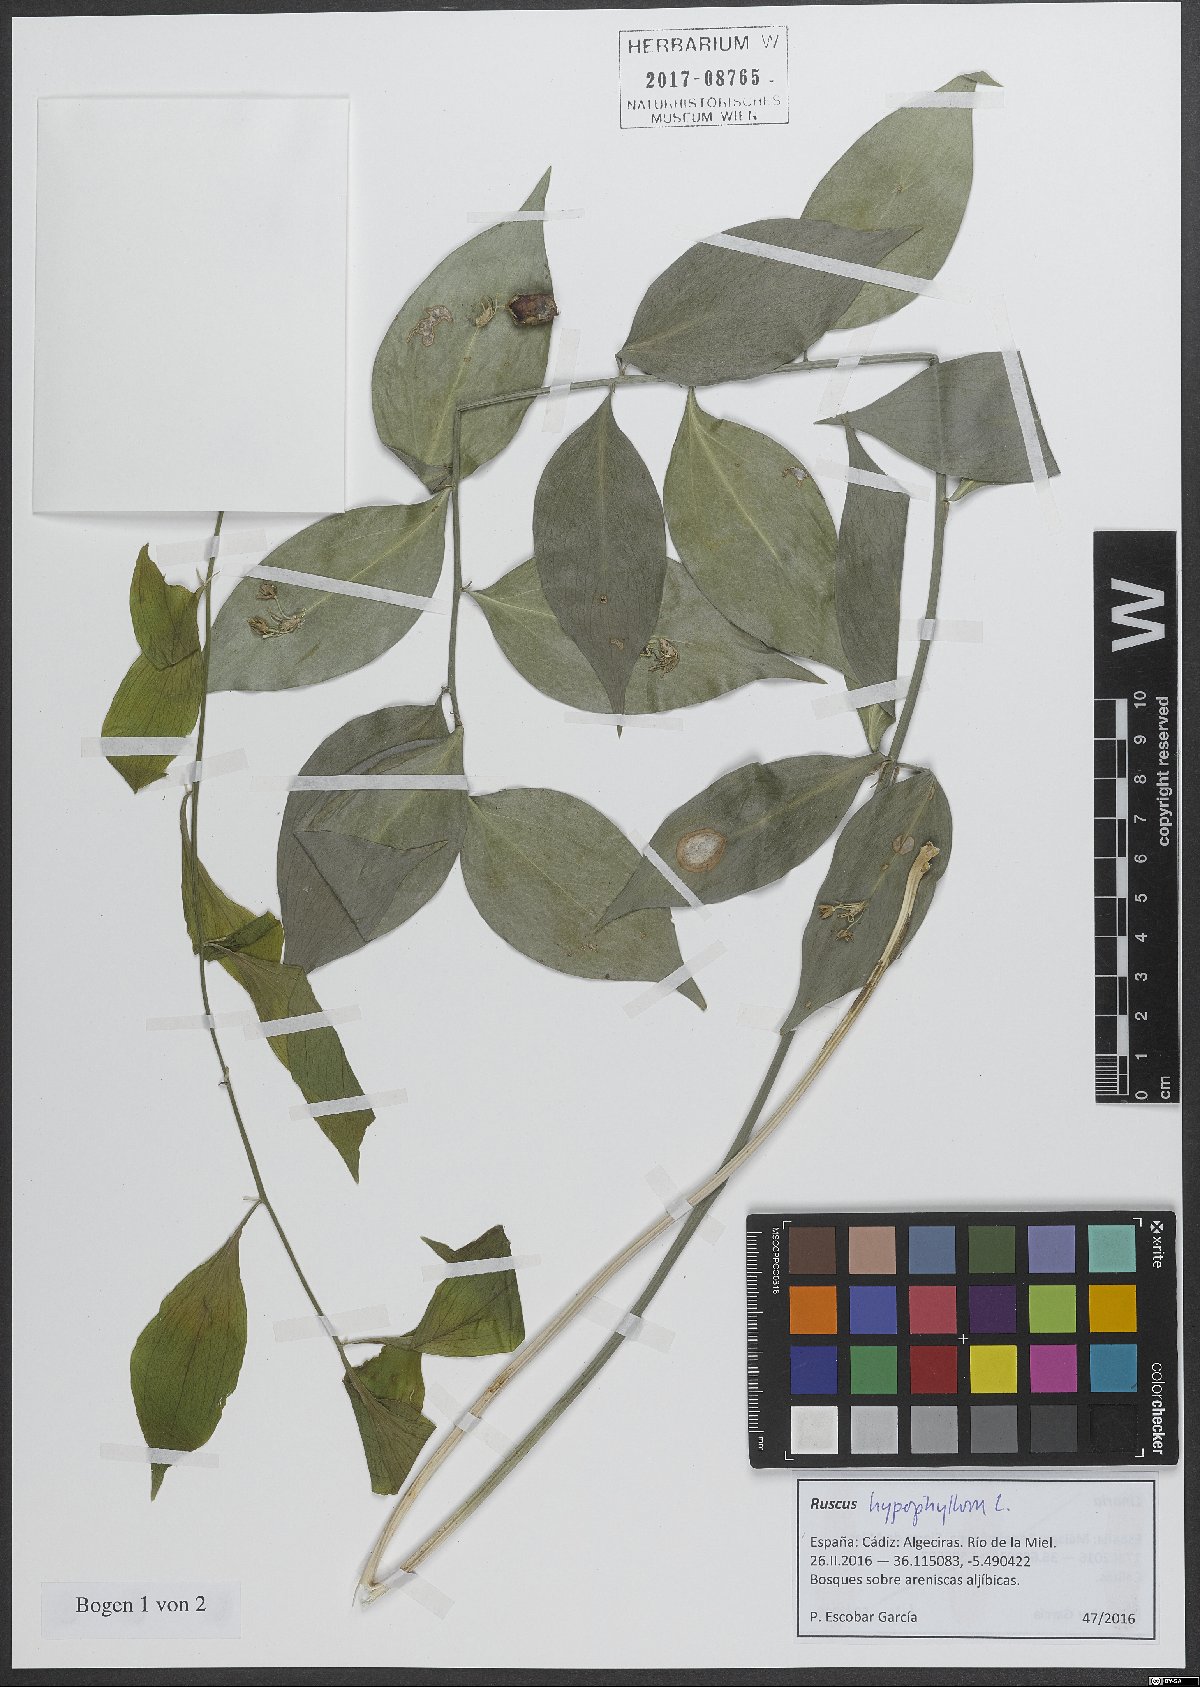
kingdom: Plantae
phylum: Tracheophyta
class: Liliopsida
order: Asparagales
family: Asparagaceae
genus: Ruscus
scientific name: Ruscus hypophyllum
